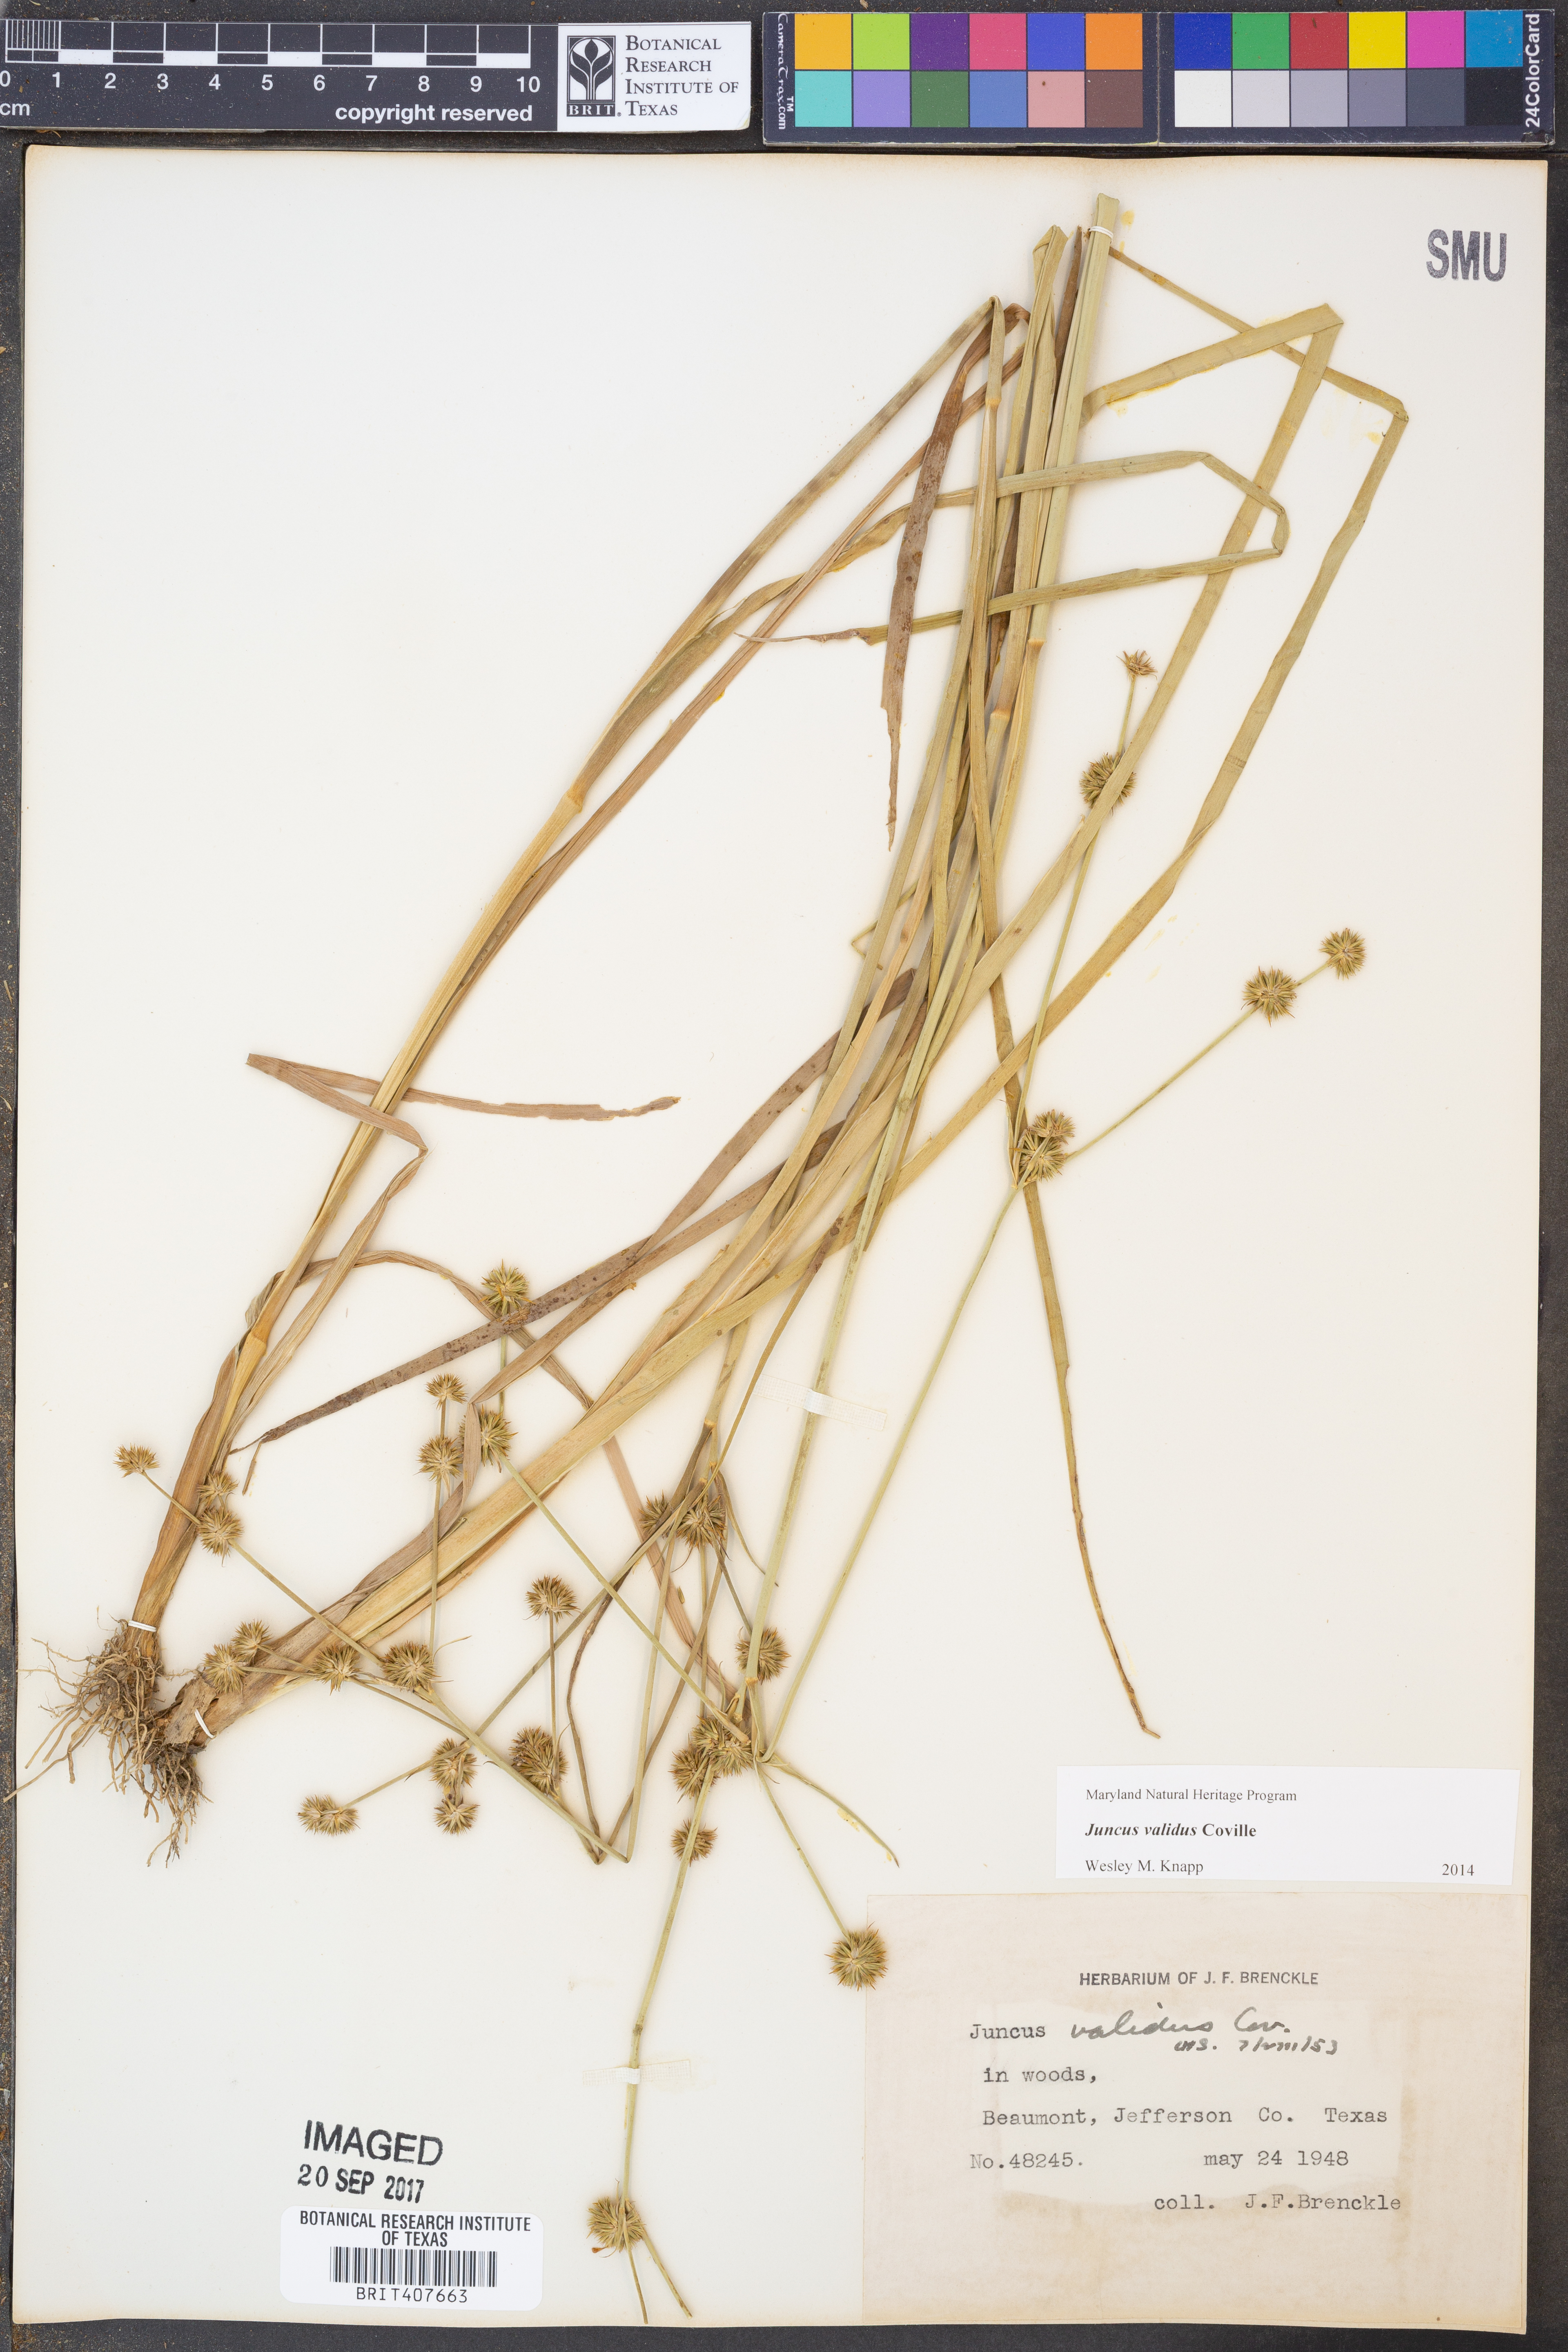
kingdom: Plantae
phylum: Tracheophyta
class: Liliopsida
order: Poales
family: Juncaceae
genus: Juncus
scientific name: Juncus validus
